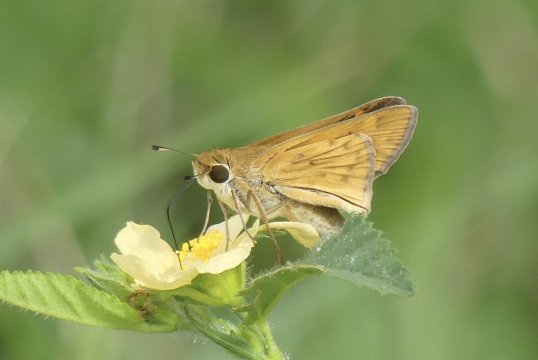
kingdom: Animalia
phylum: Arthropoda
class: Insecta
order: Lepidoptera
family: Hesperiidae
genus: Hylephila
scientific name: Hylephila phyleus
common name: Fiery Skipper
